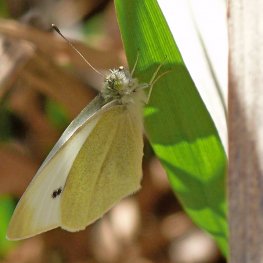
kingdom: Animalia
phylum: Arthropoda
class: Insecta
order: Lepidoptera
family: Pieridae
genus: Pieris
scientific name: Pieris rapae
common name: Cabbage White
